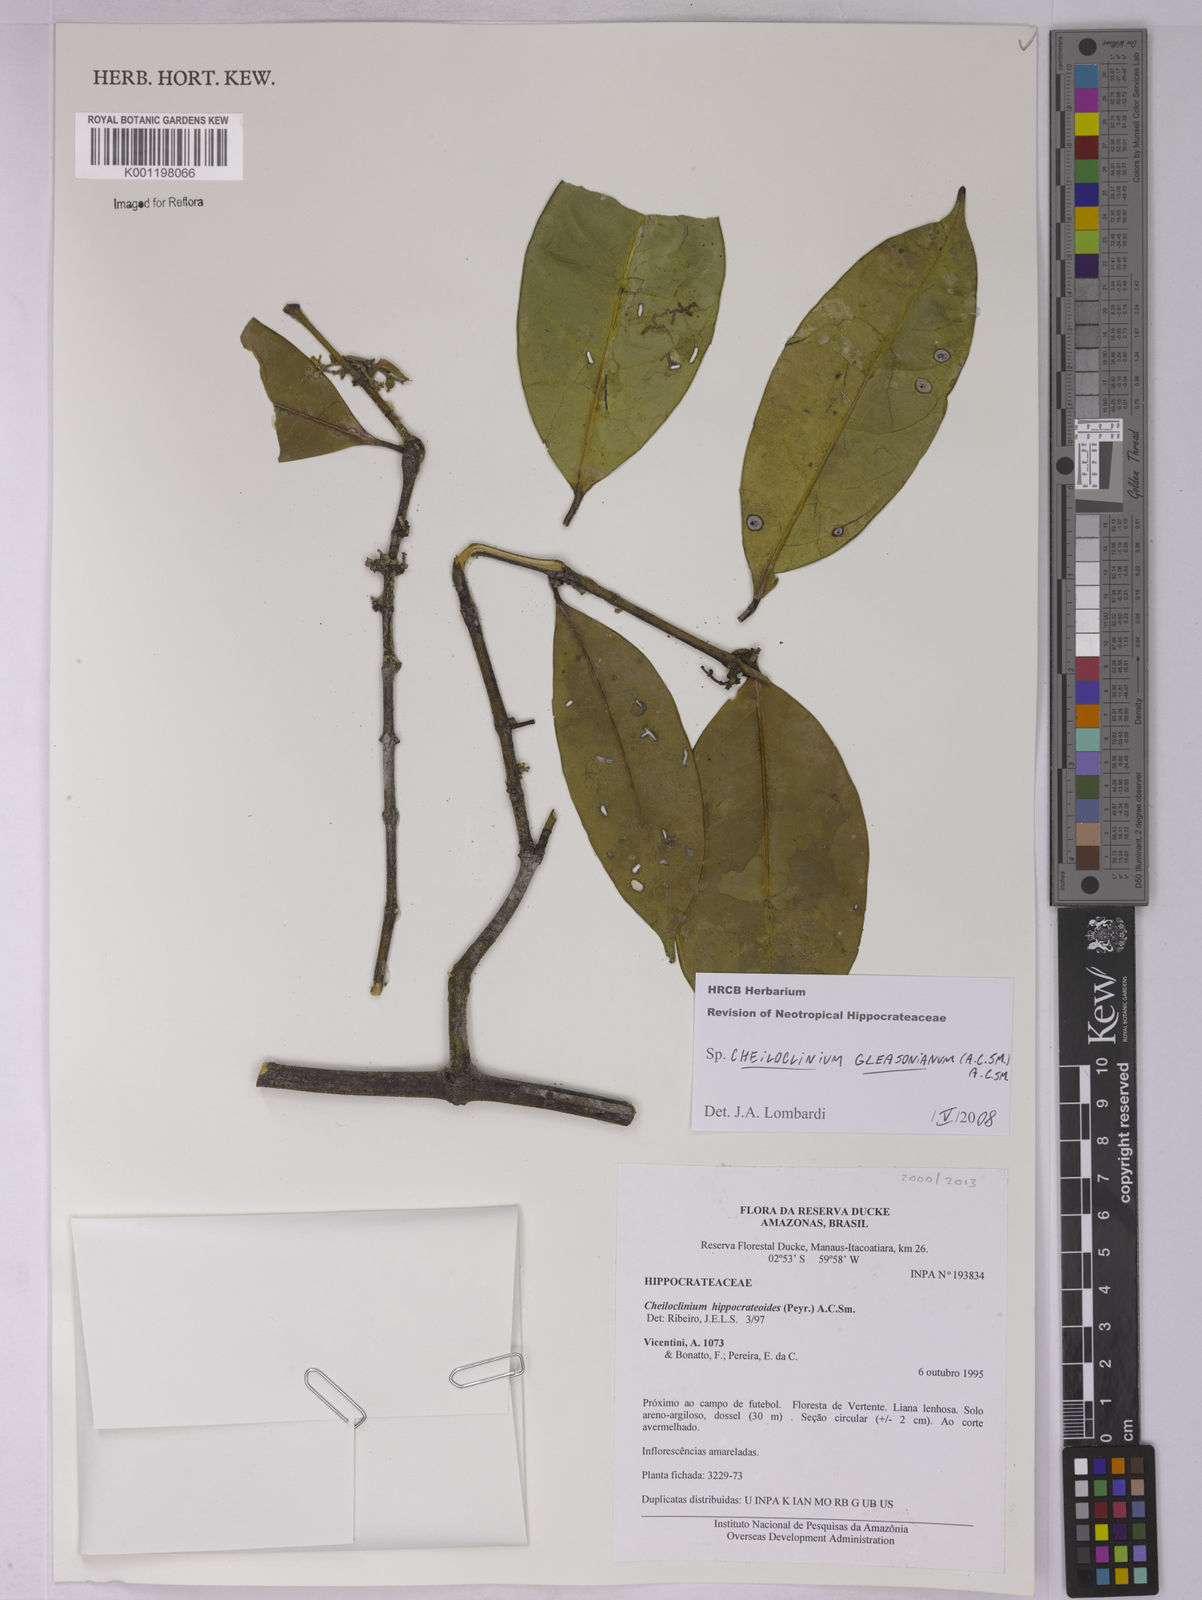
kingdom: Plantae
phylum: Tracheophyta
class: Magnoliopsida
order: Celastrales
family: Celastraceae
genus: Cheiloclinium
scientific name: Cheiloclinium gleasonianum
